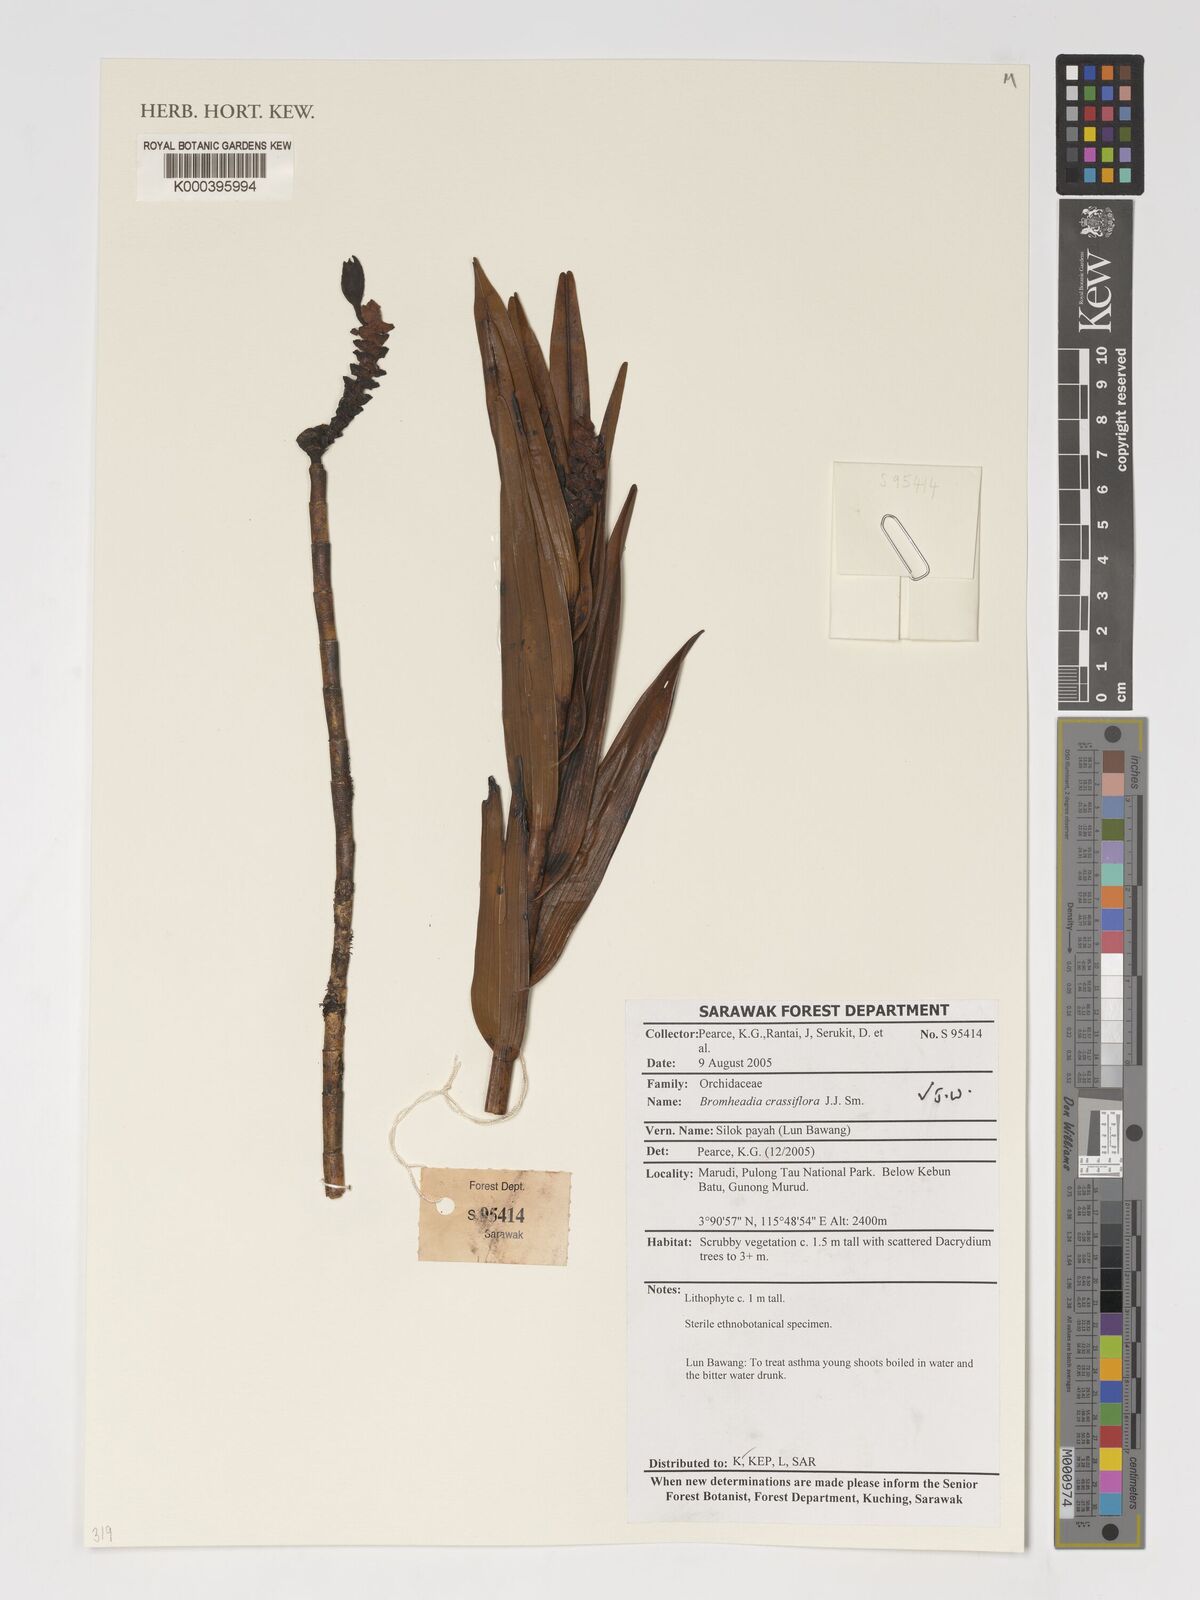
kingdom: Plantae
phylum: Tracheophyta
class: Liliopsida
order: Asparagales
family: Orchidaceae
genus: Bromheadia
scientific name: Bromheadia crassiflora
